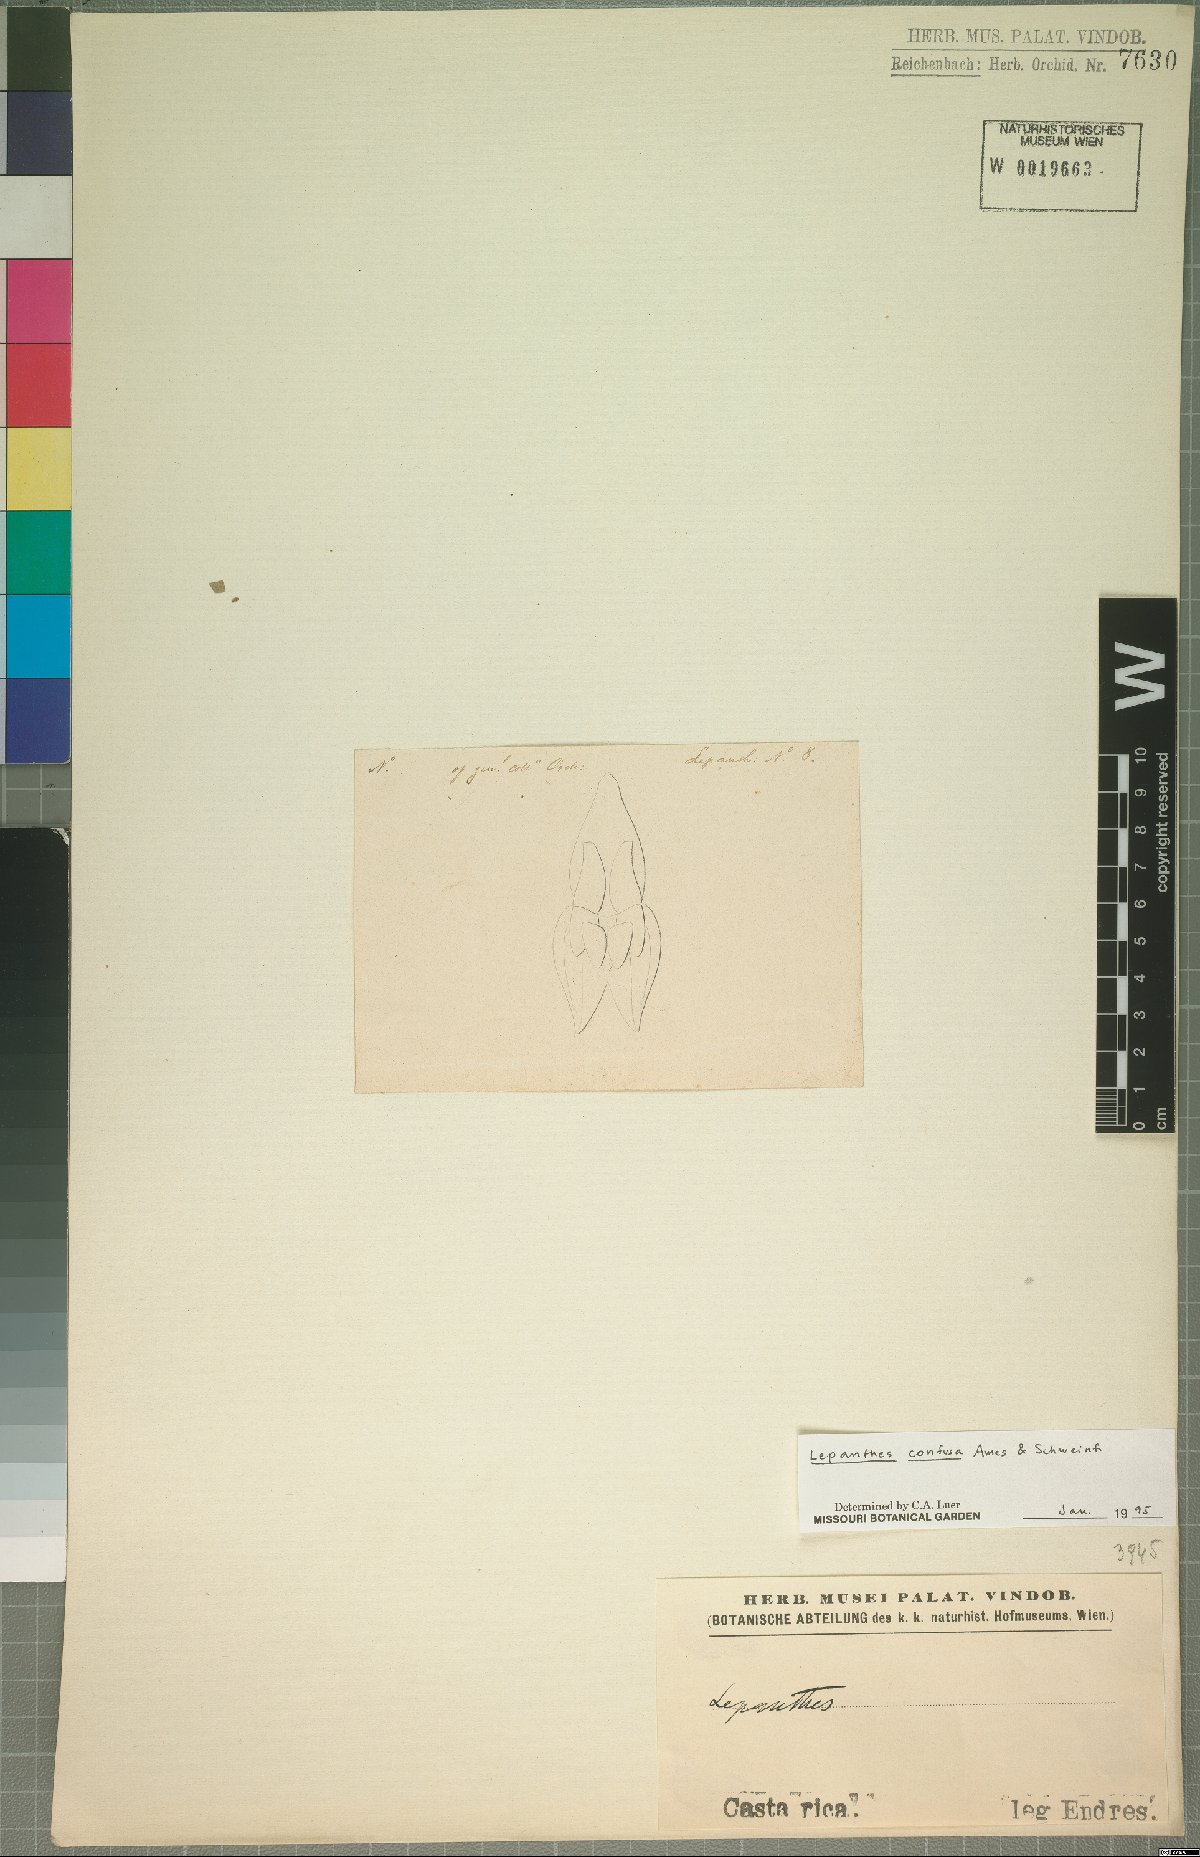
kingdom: Plantae
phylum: Tracheophyta
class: Liliopsida
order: Asparagales
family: Orchidaceae
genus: Lepanthes
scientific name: Lepanthes confusa
